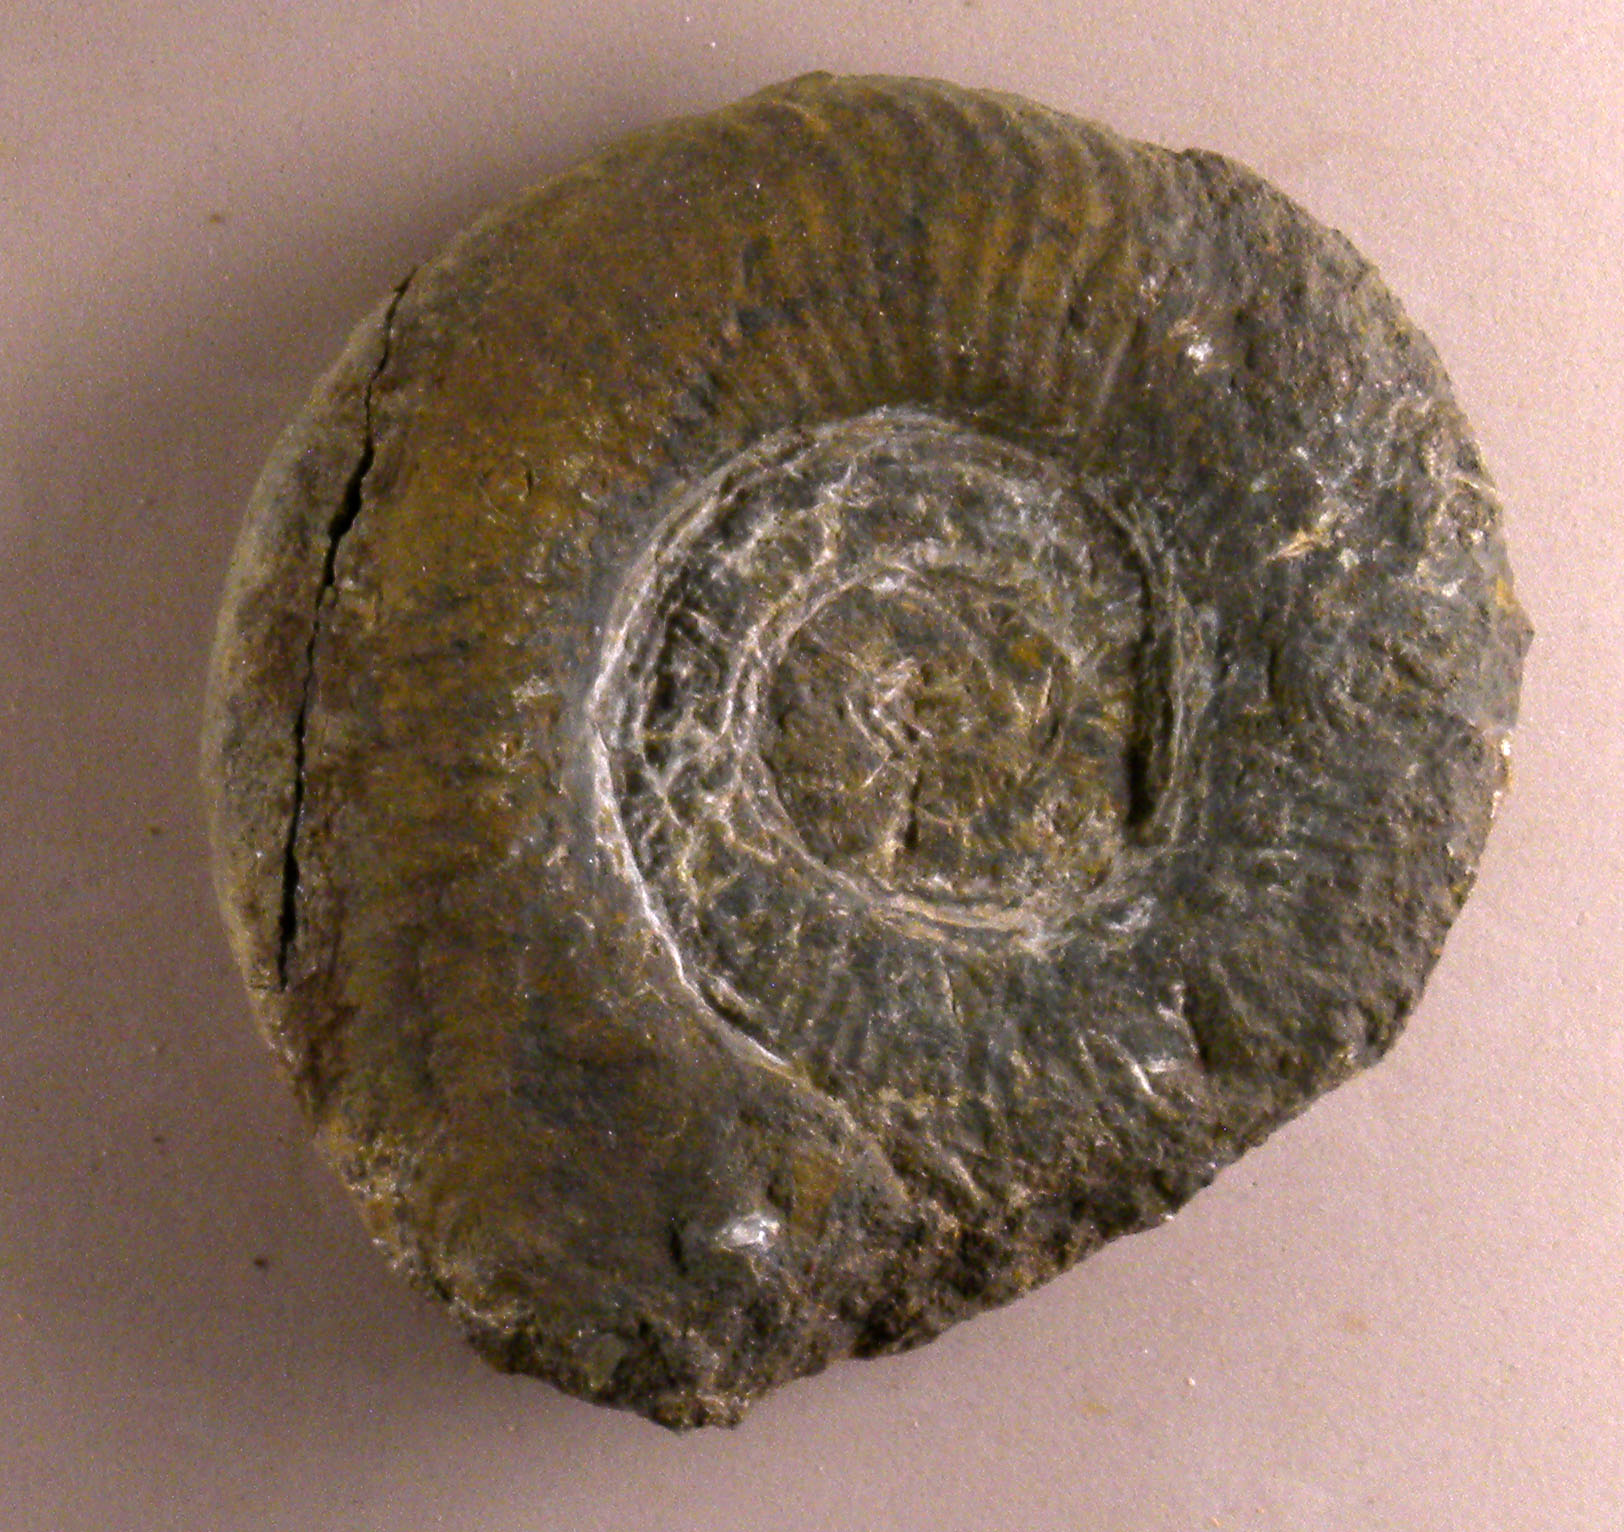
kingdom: Animalia
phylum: Mollusca
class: Cephalopoda
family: Hildoceratidae
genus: Dumortieria
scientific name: Dumortieria
